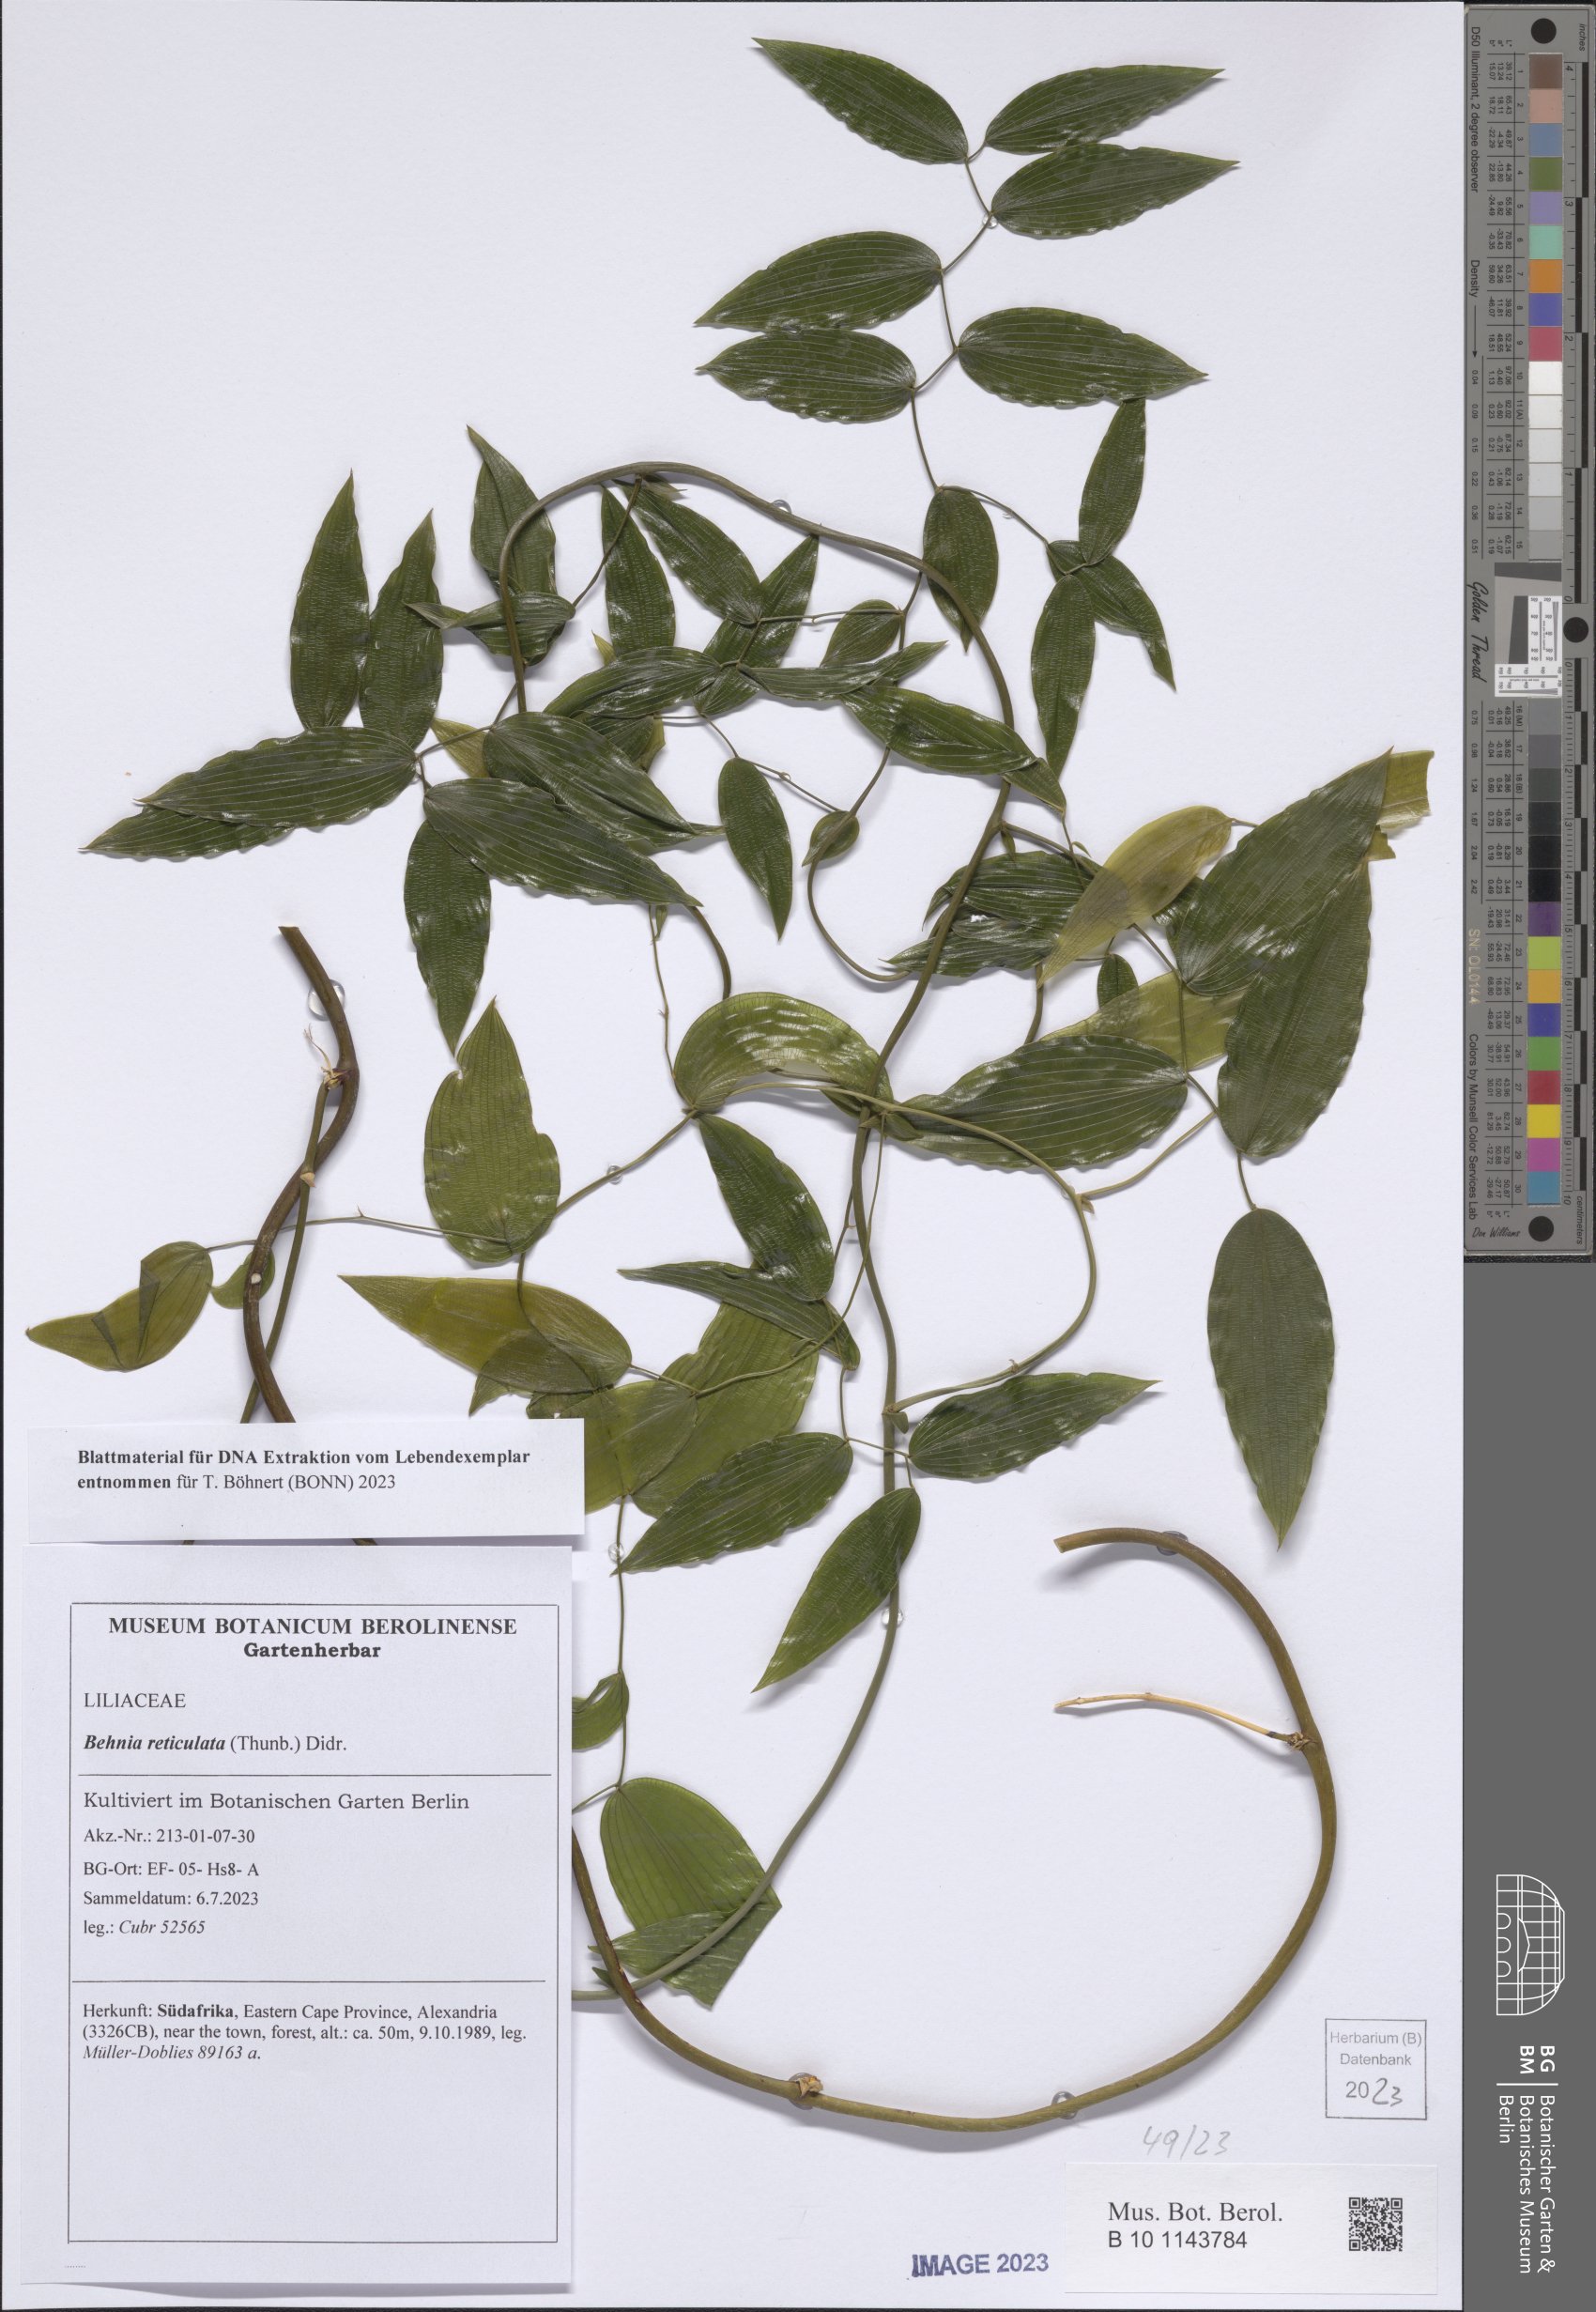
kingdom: Plantae
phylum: Tracheophyta
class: Liliopsida
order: Asparagales
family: Asparagaceae
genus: Behnia
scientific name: Behnia reticulata
